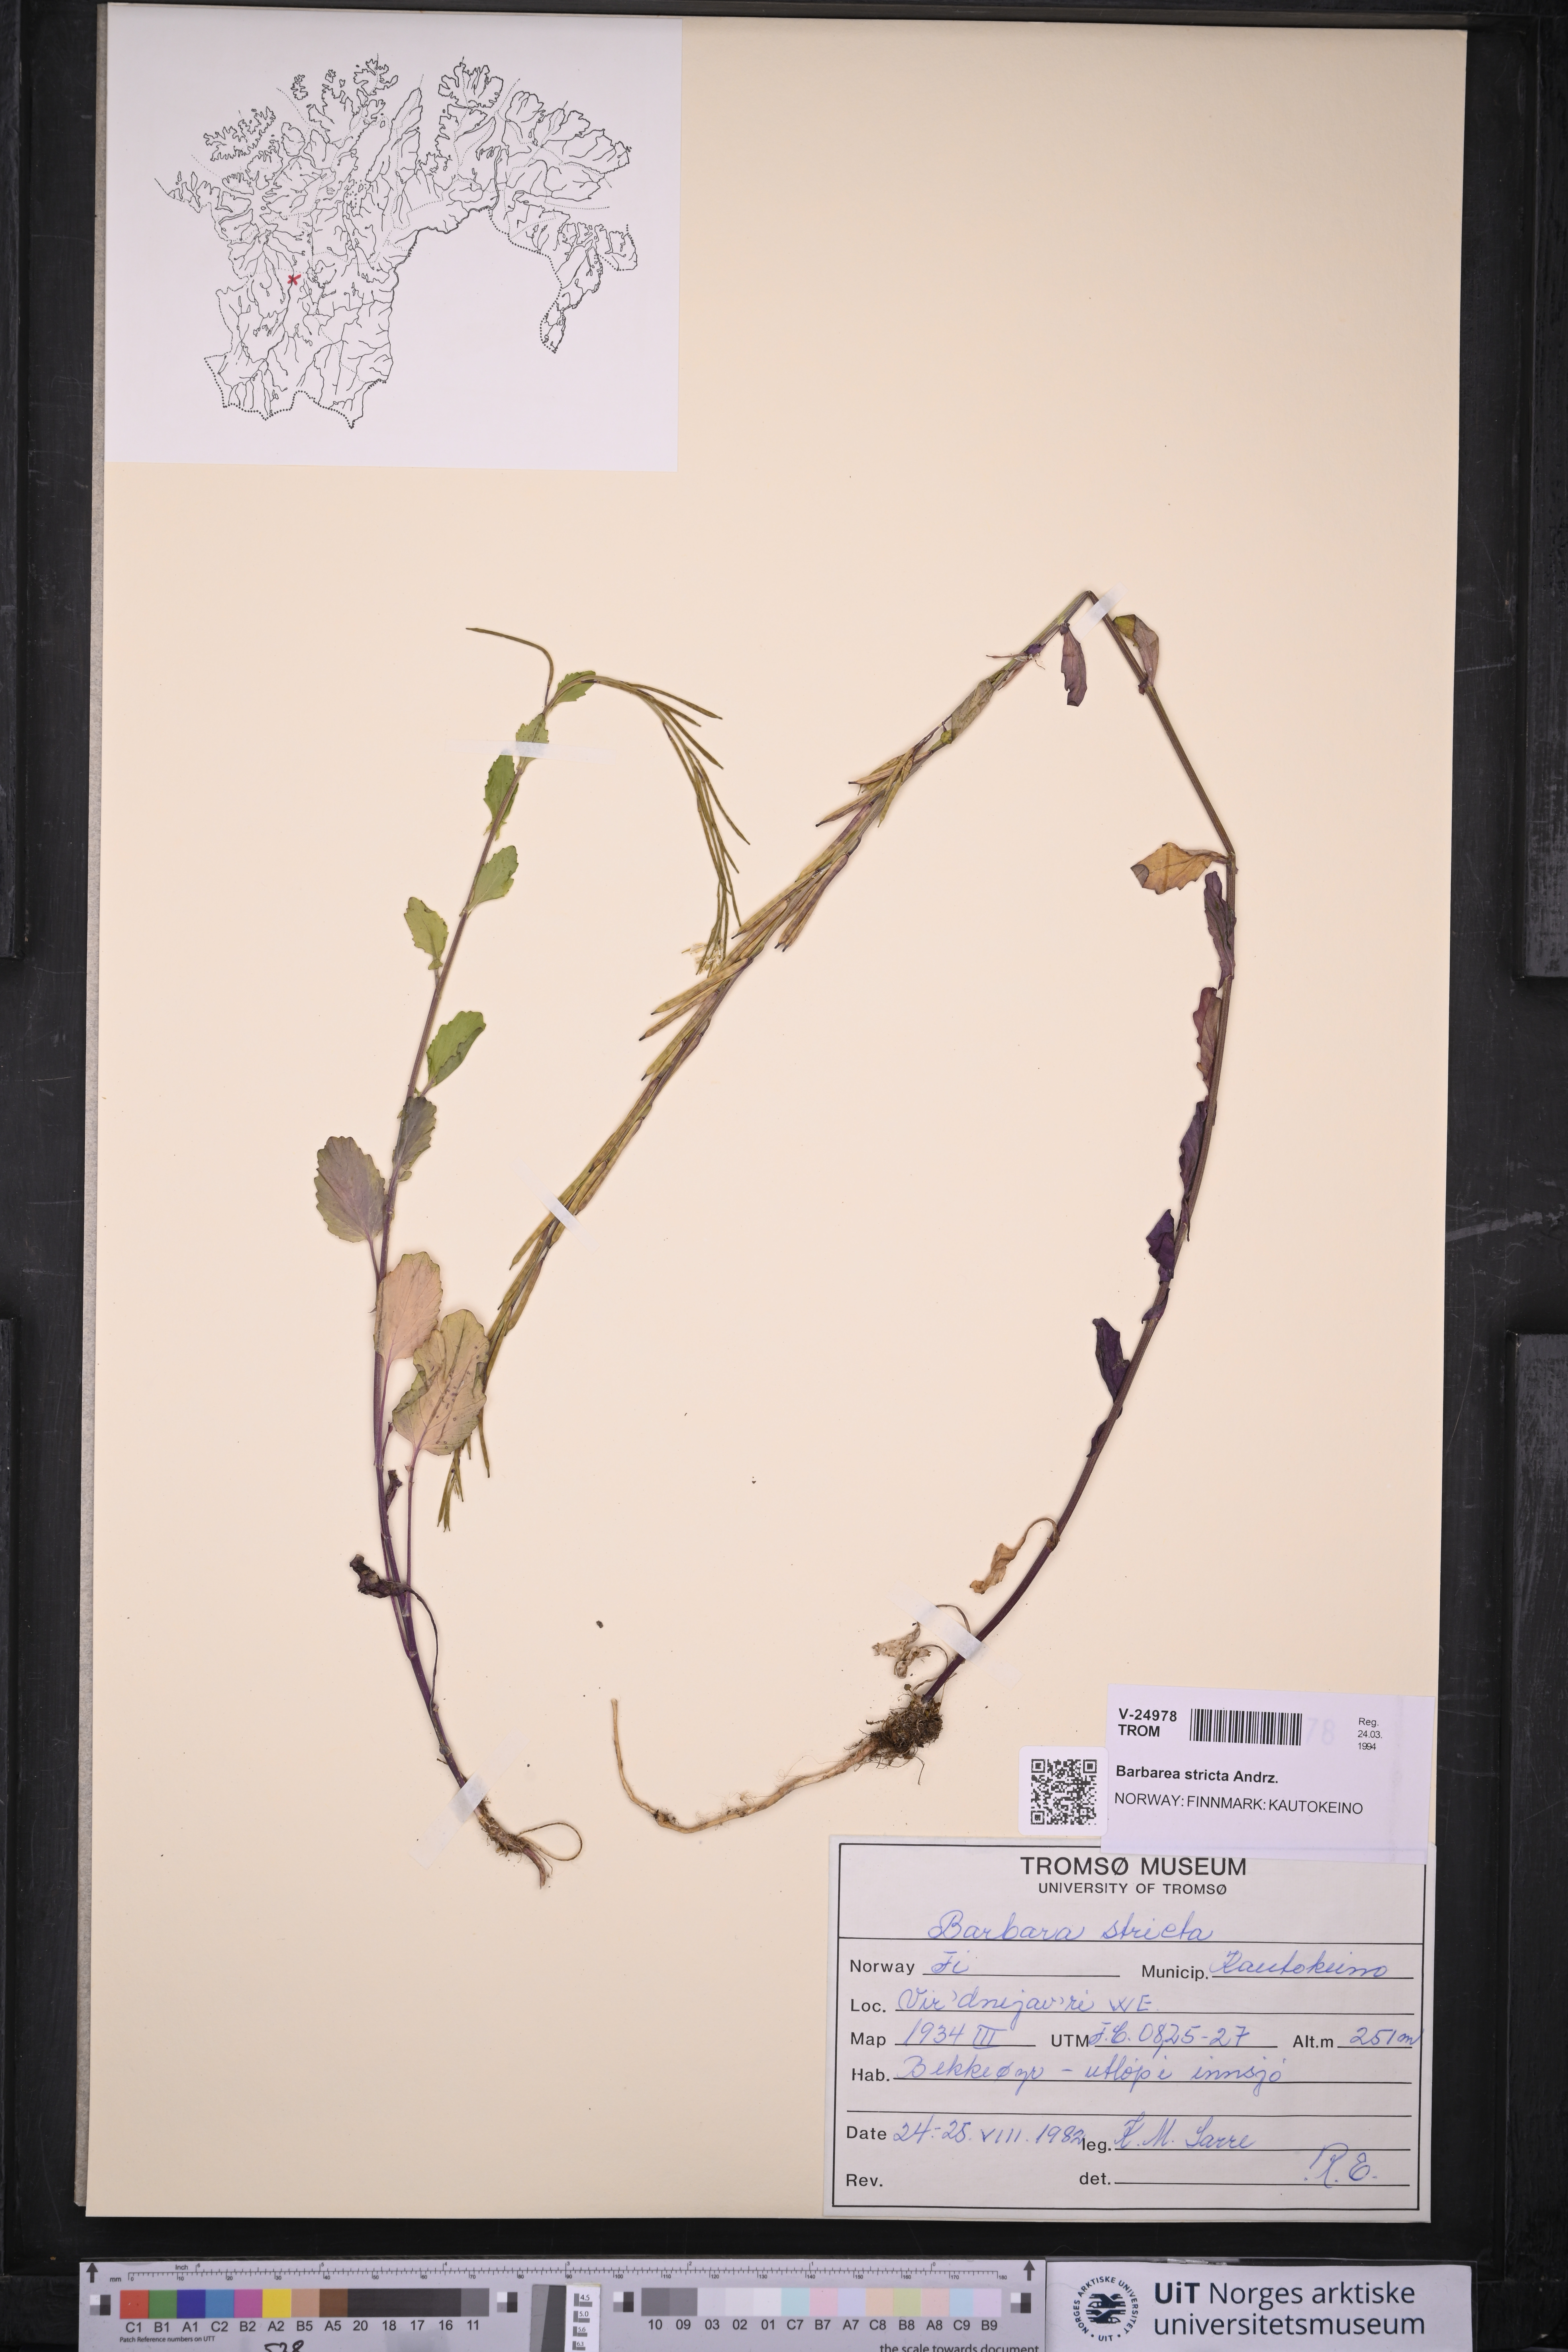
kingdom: Plantae
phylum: Tracheophyta
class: Magnoliopsida
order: Brassicales
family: Brassicaceae
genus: Barbarea
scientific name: Barbarea stricta
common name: Small-flowered winter-cress
